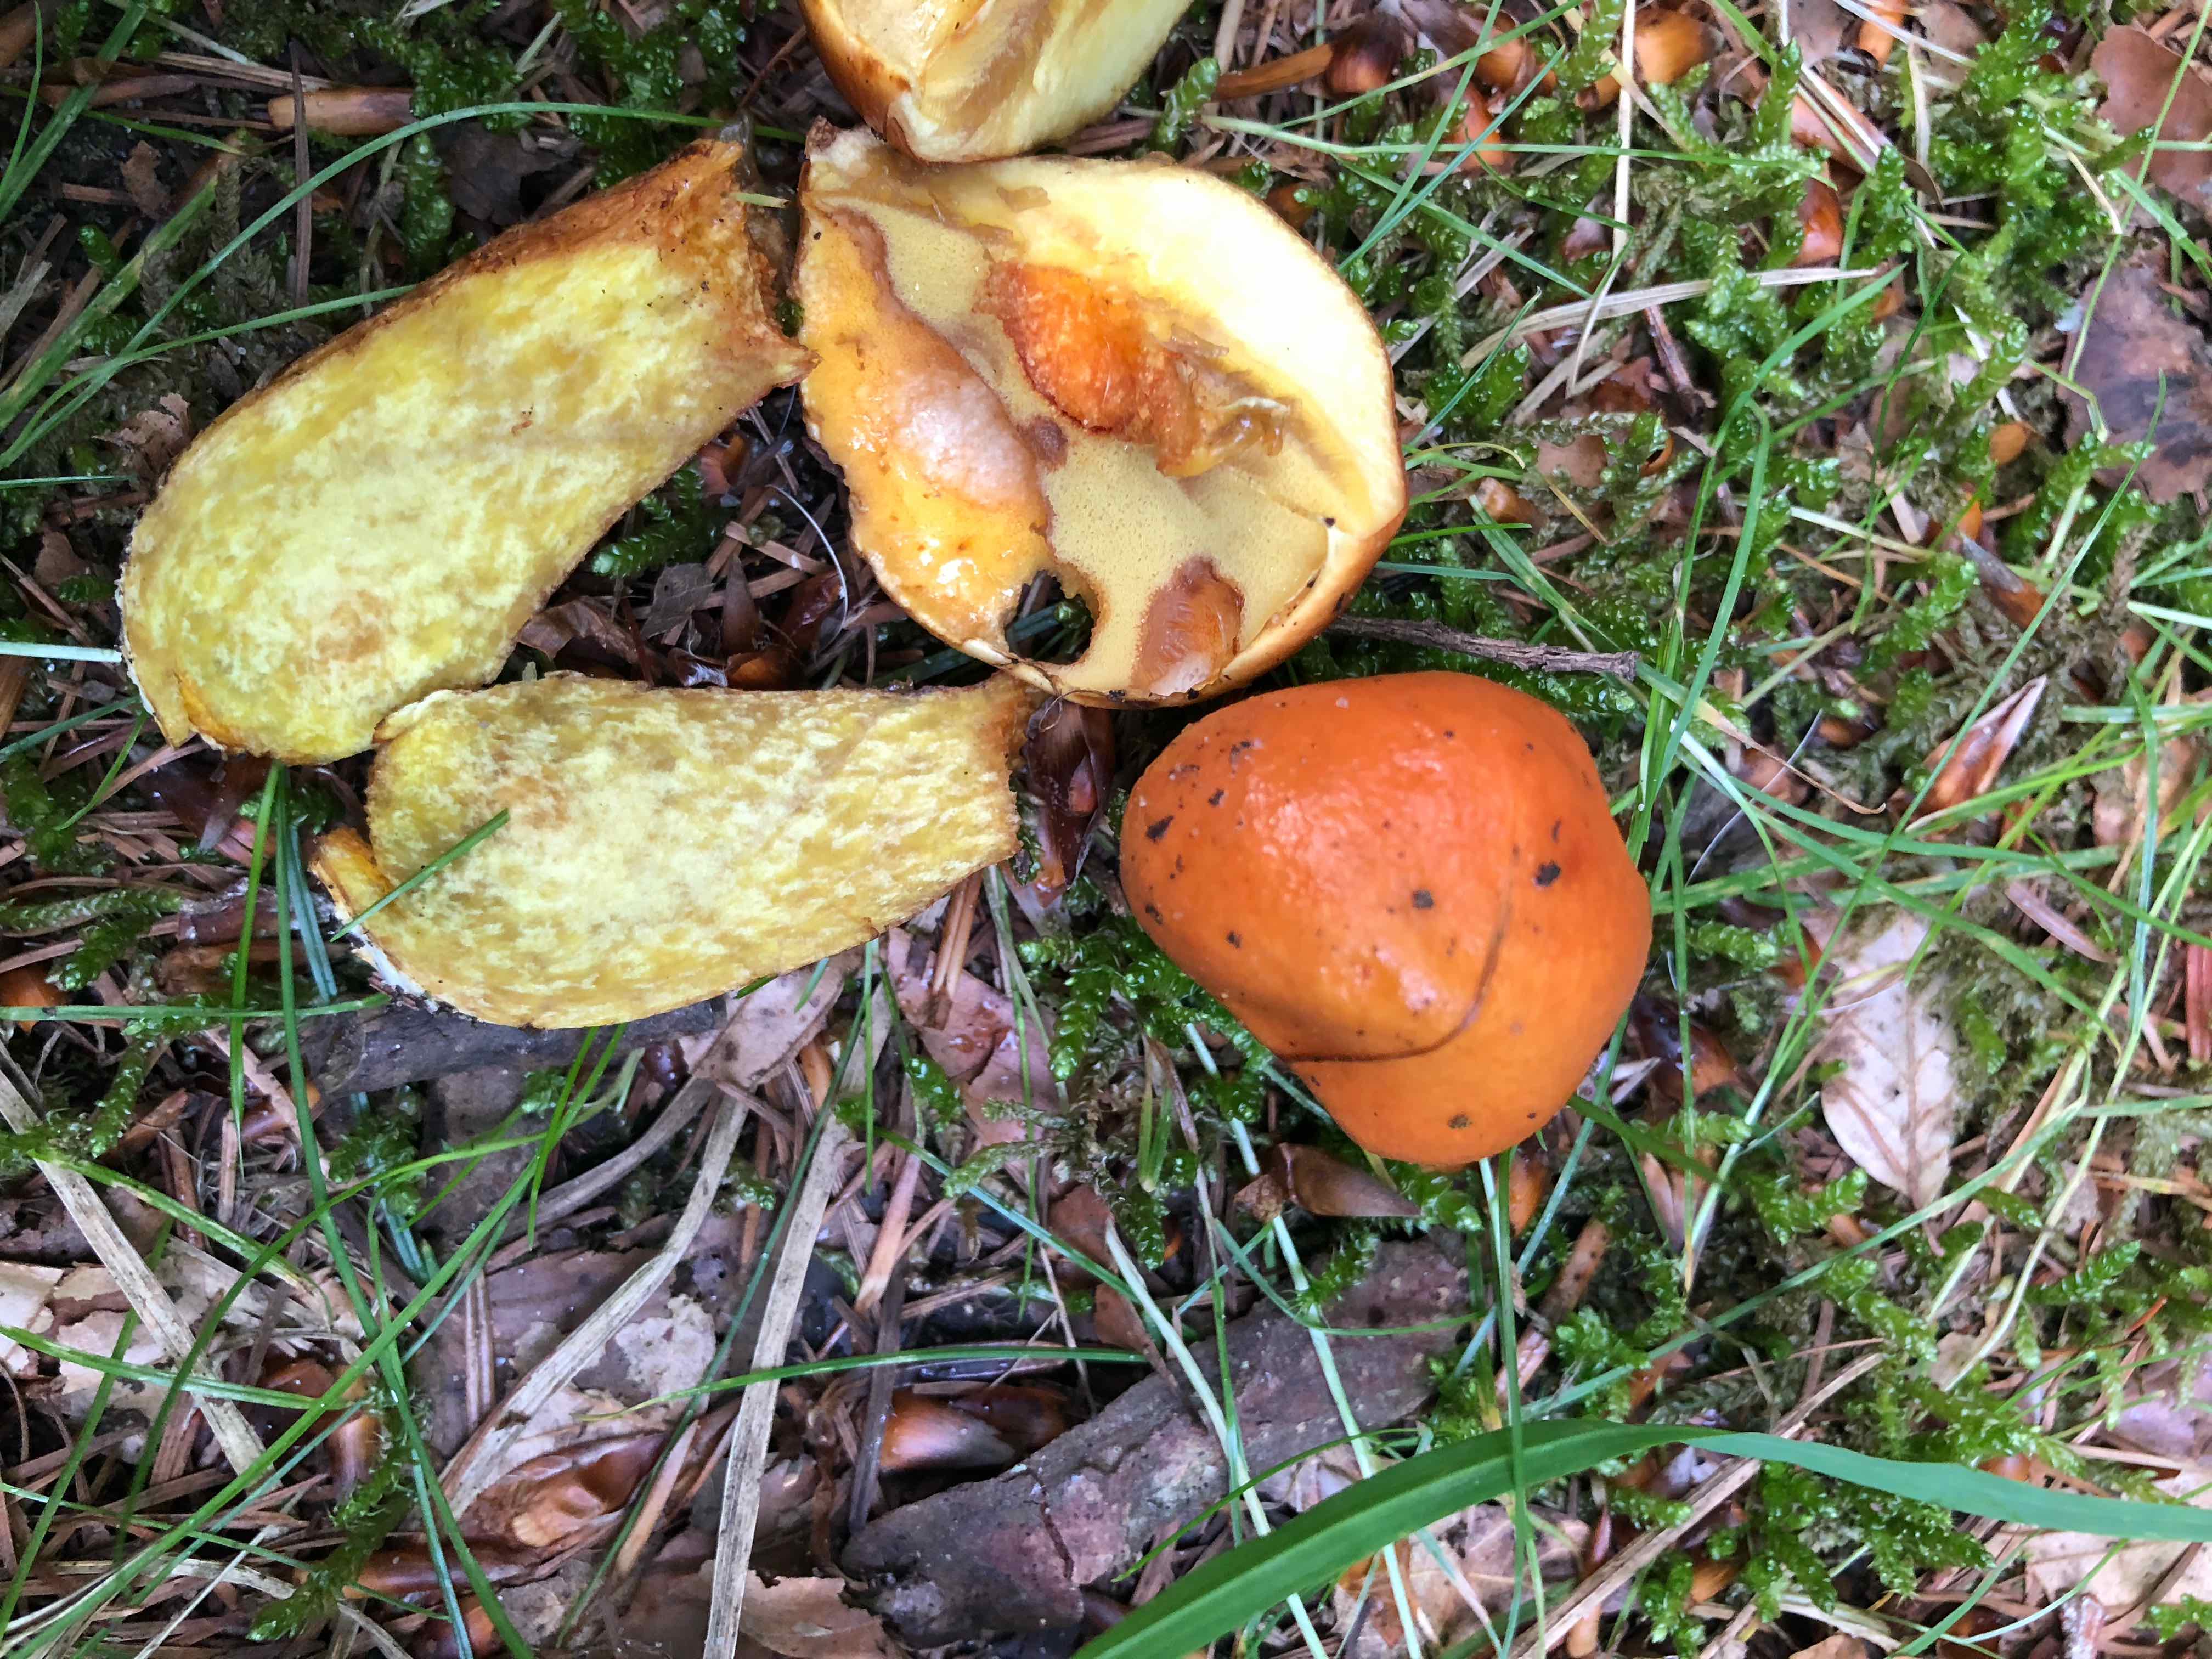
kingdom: Fungi
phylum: Basidiomycota
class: Agaricomycetes
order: Boletales
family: Suillaceae
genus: Suillus
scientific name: Suillus grevillei
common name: lærke-slimrørhat
